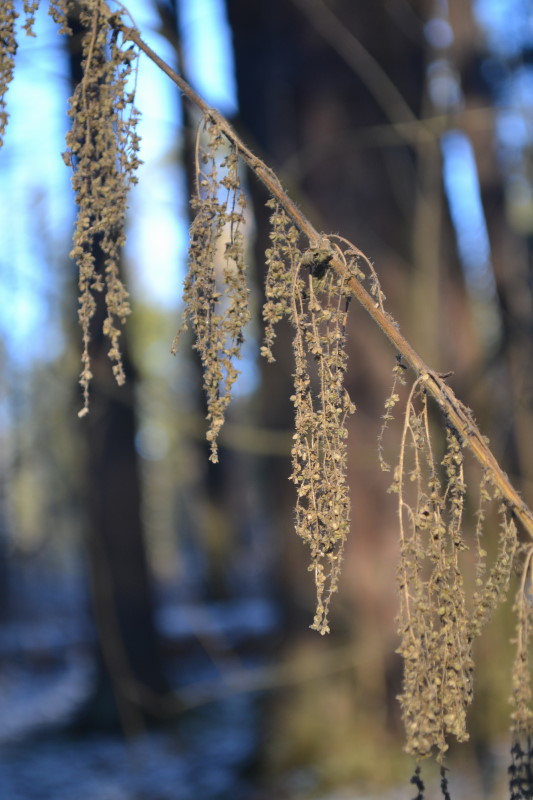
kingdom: Plantae
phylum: Tracheophyta
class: Magnoliopsida
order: Rosales
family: Urticaceae
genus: Urtica
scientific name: Urtica dioica
